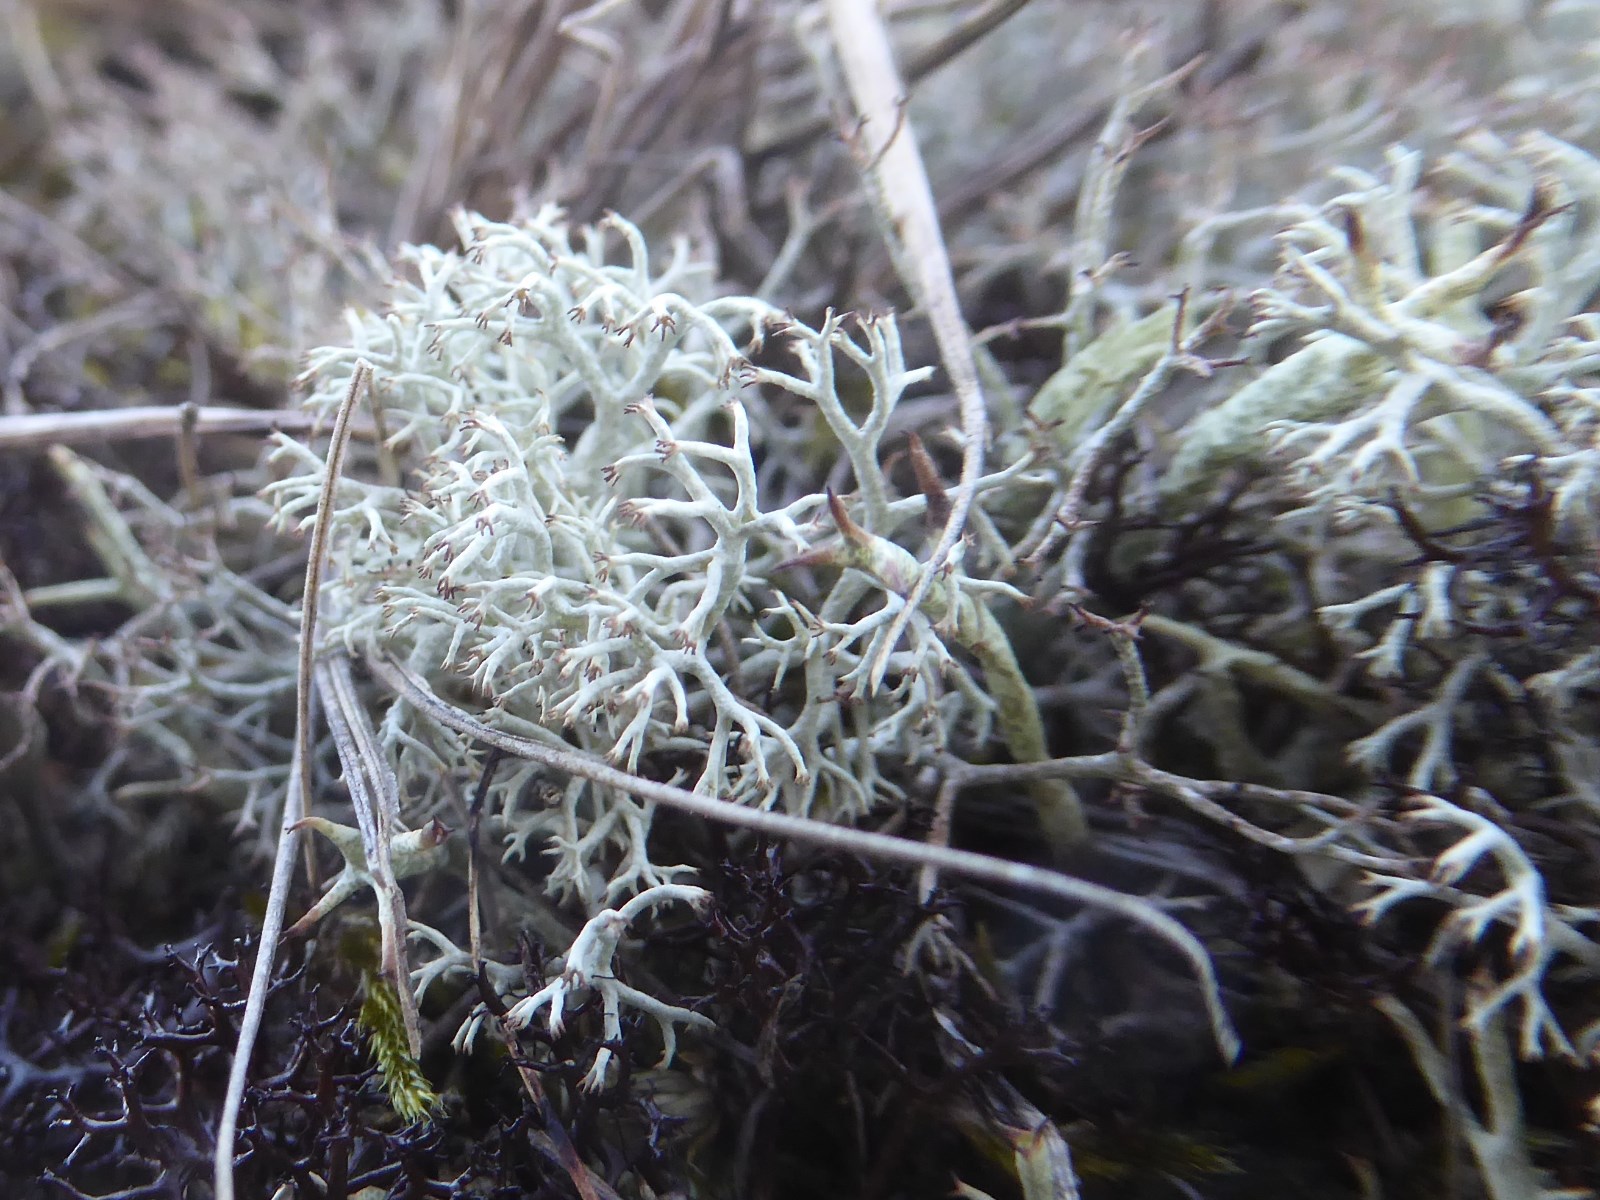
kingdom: Fungi
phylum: Ascomycota
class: Lecanoromycetes
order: Lecanorales
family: Cladoniaceae
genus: Cladonia
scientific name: Cladonia ciliata
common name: spinkel rensdyrlav
